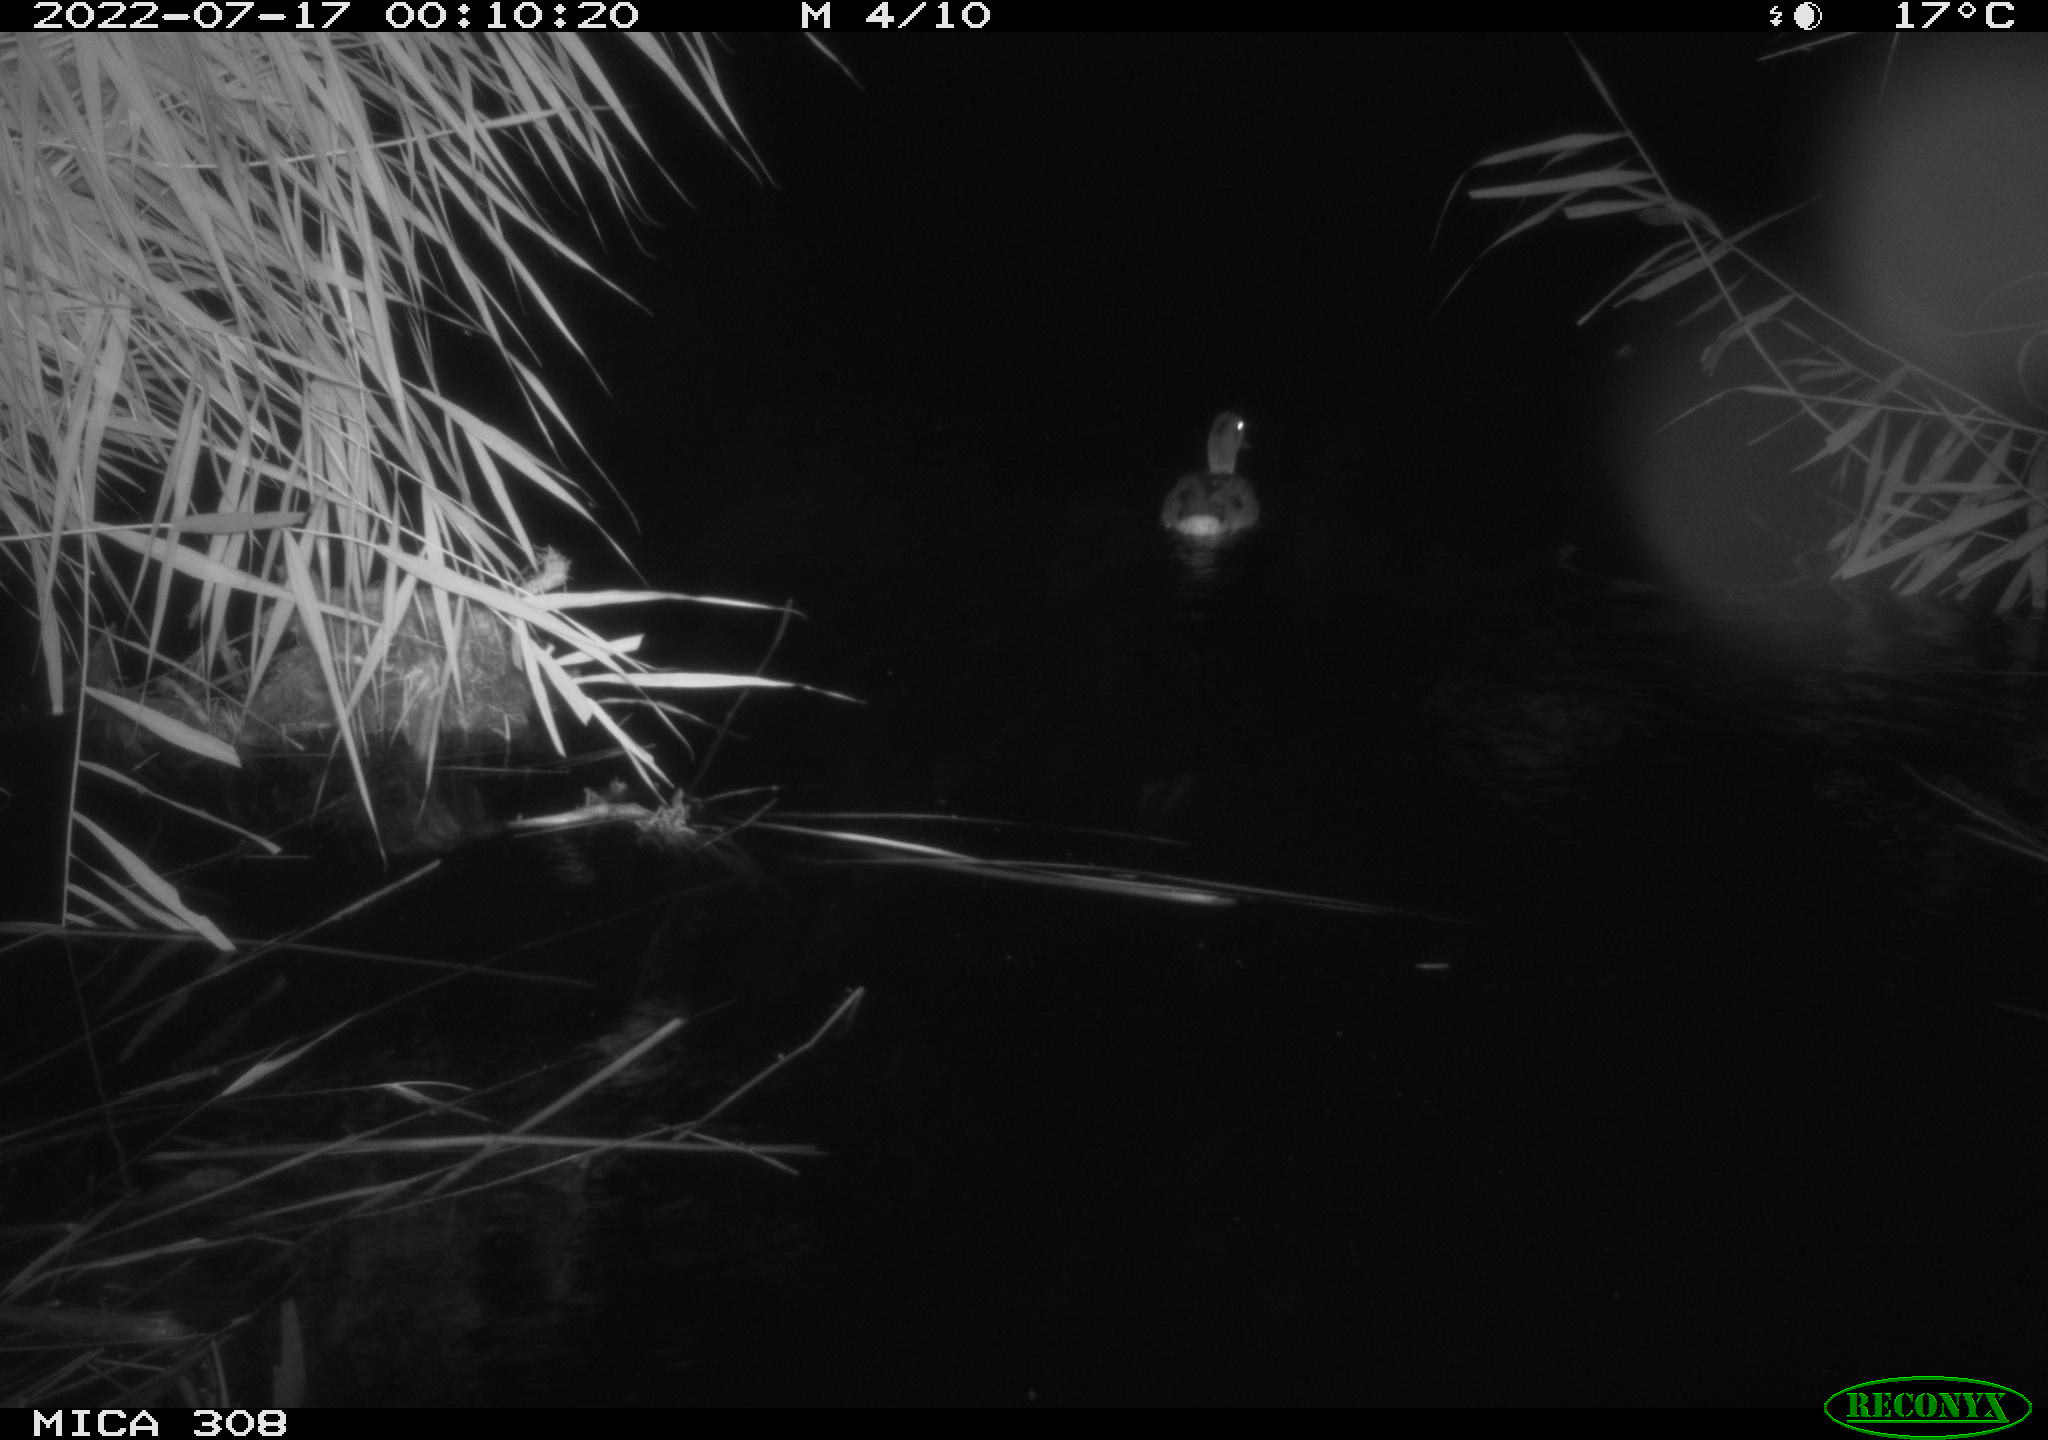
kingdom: Animalia
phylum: Chordata
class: Aves
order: Anseriformes
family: Anatidae
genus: Anas
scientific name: Anas platyrhynchos
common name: Mallard
